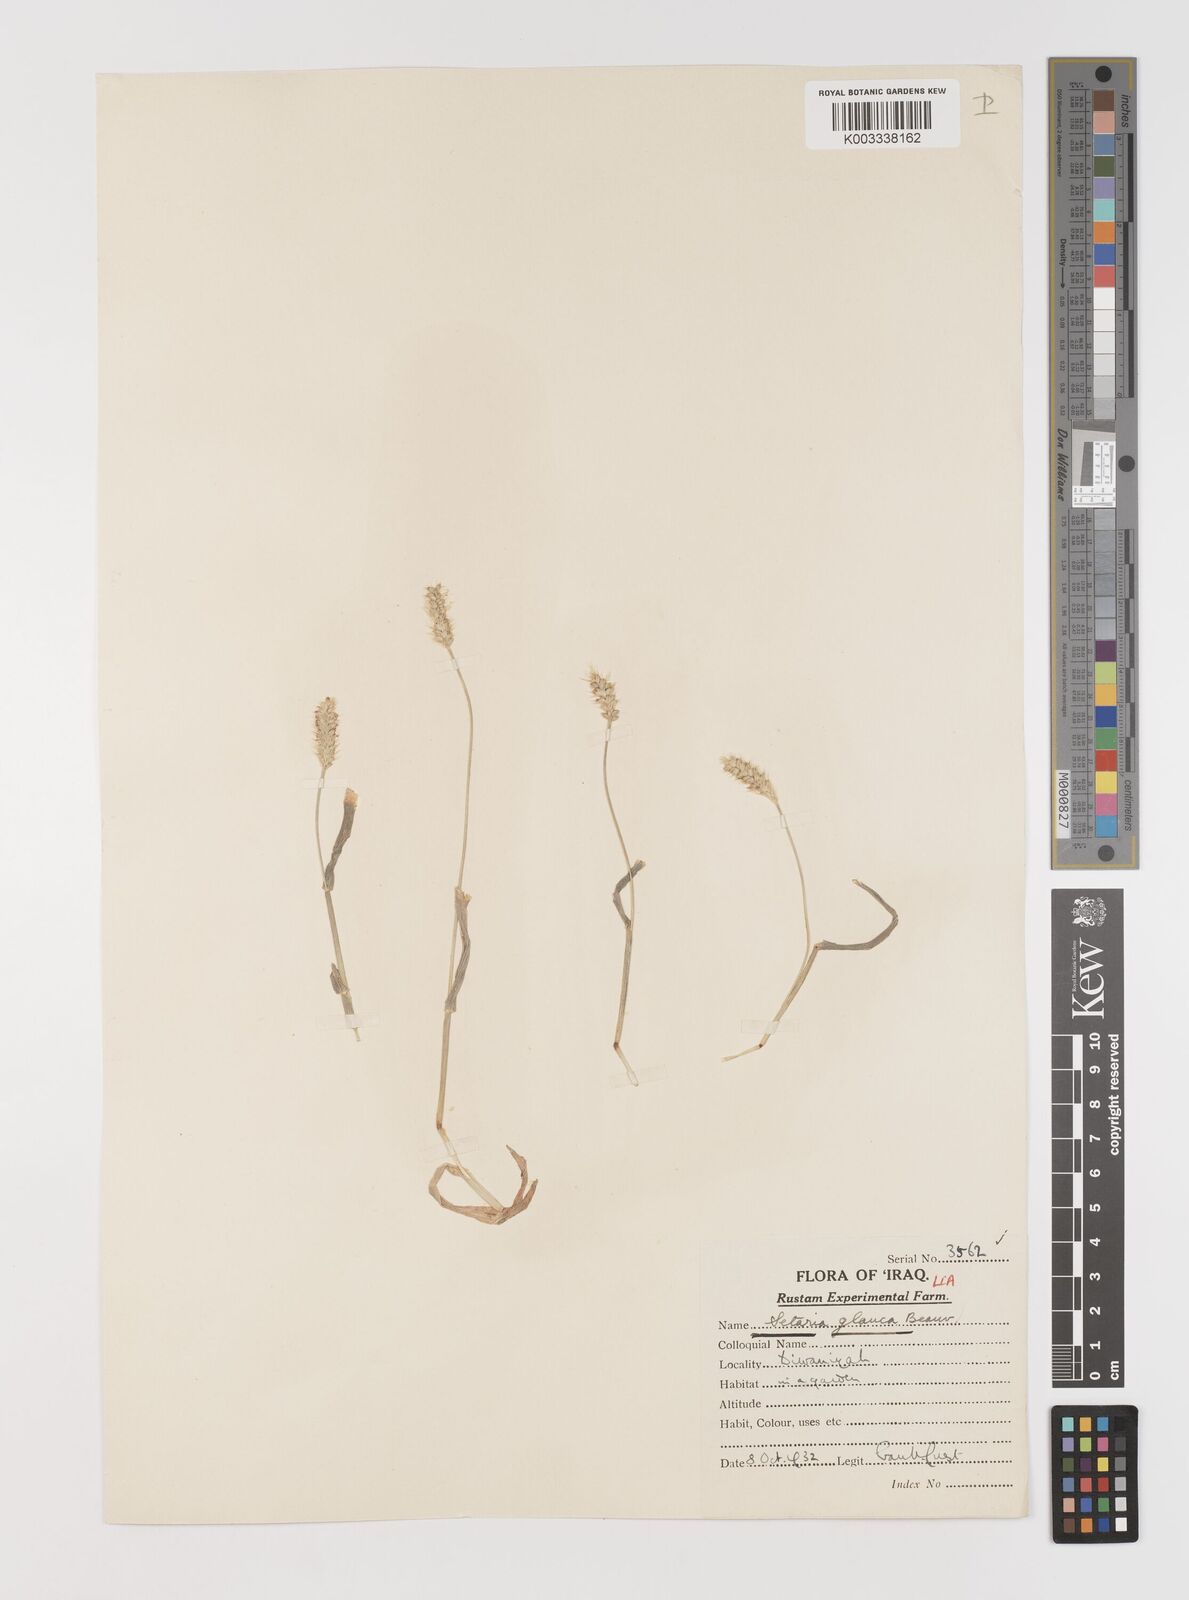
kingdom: Plantae
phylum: Tracheophyta
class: Liliopsida
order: Poales
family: Poaceae
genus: Setaria
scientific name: Setaria pumila
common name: Yellow bristle-grass
